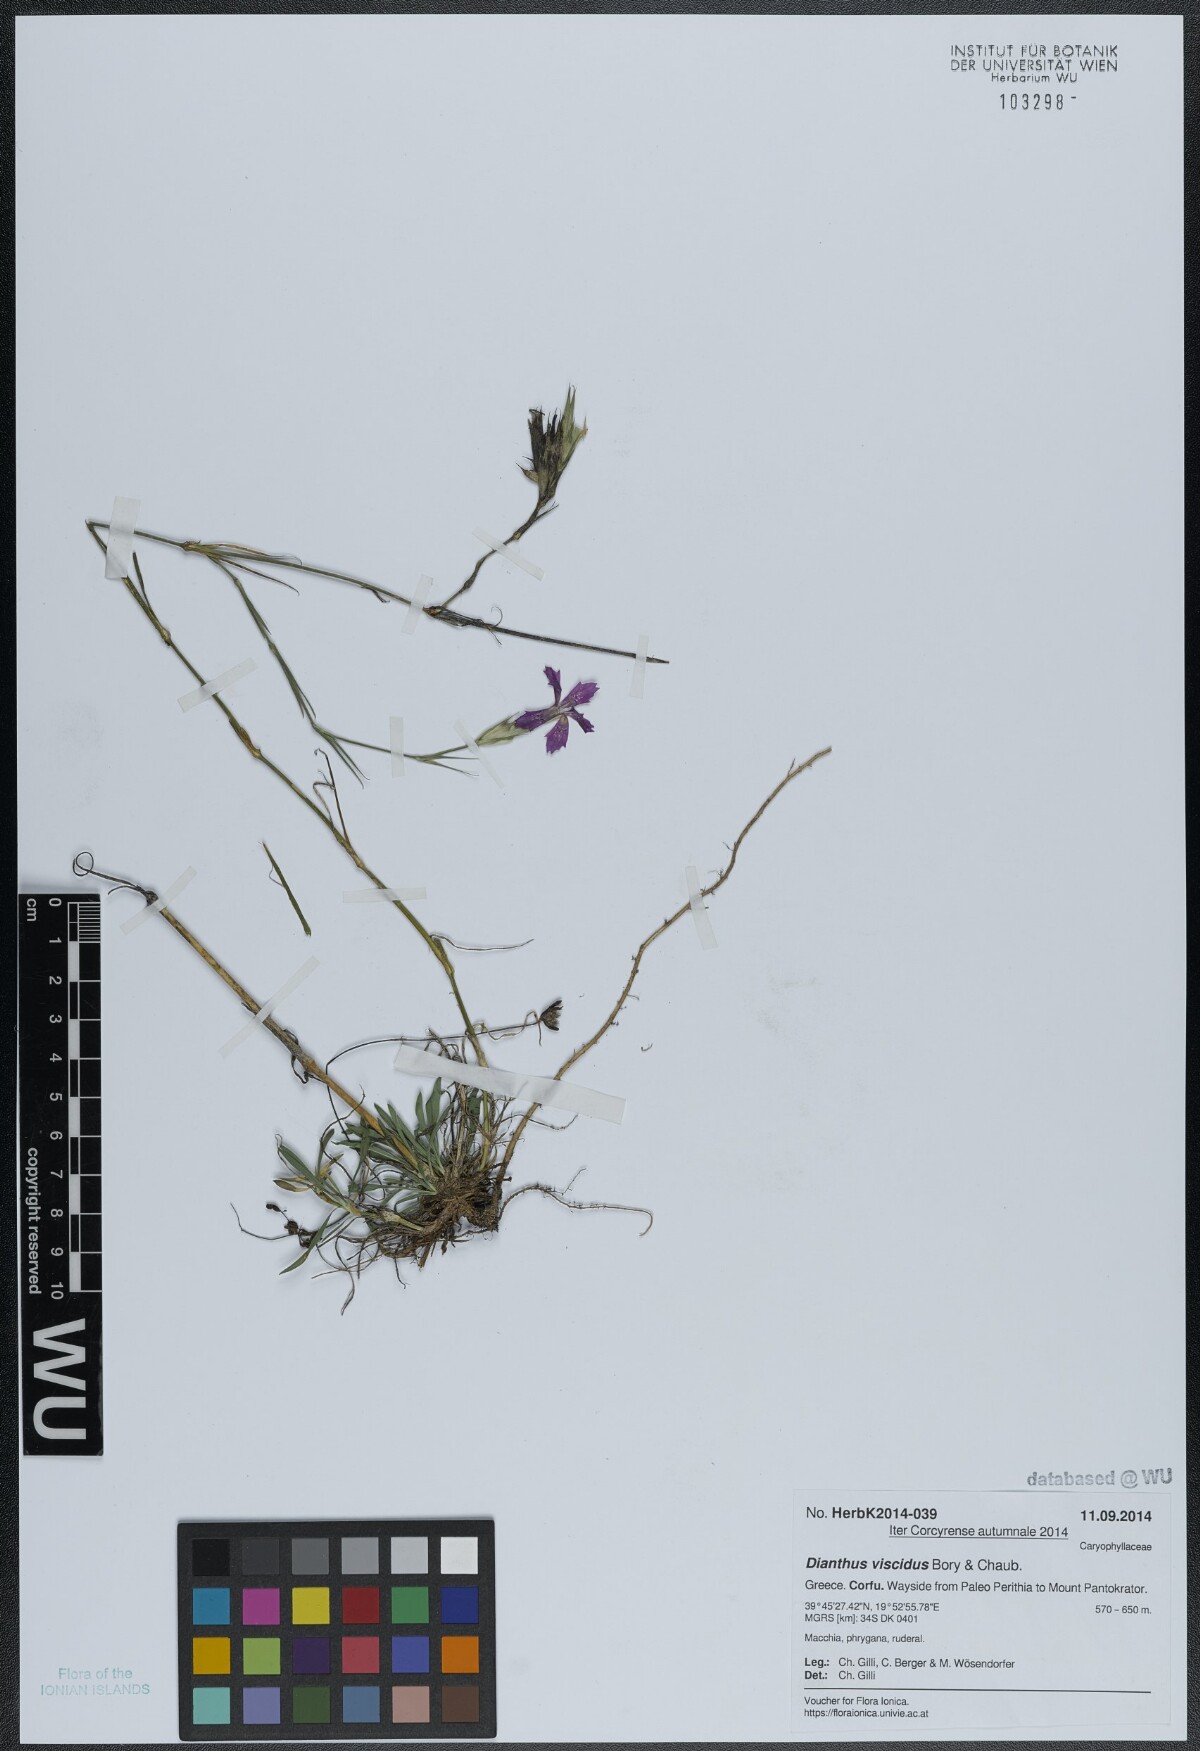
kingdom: Plantae
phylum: Tracheophyta
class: Magnoliopsida
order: Caryophyllales
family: Caryophyllaceae
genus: Dianthus
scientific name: Dianthus viscidus
